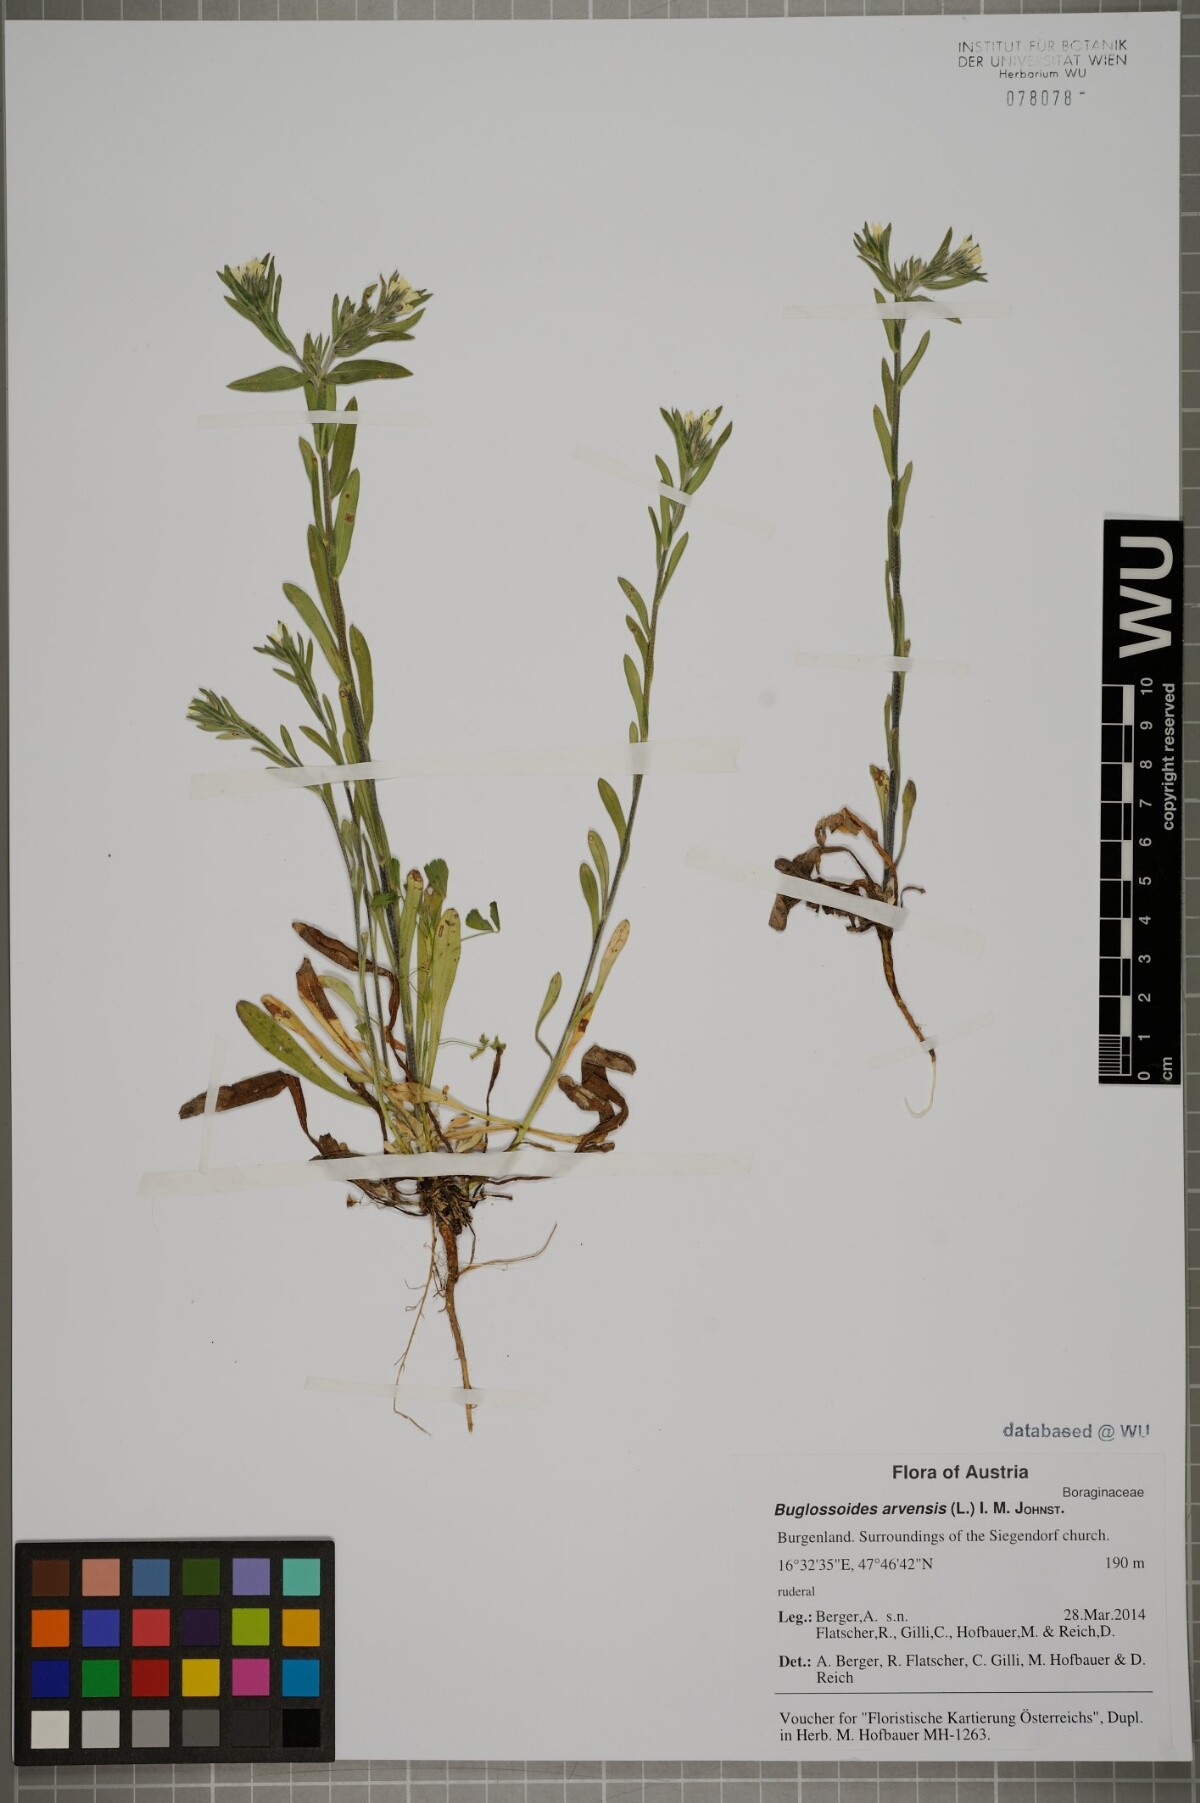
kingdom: Plantae
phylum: Tracheophyta
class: Magnoliopsida
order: Boraginales
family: Boraginaceae
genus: Buglossoides
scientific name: Buglossoides arvensis
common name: Corn gromwell
